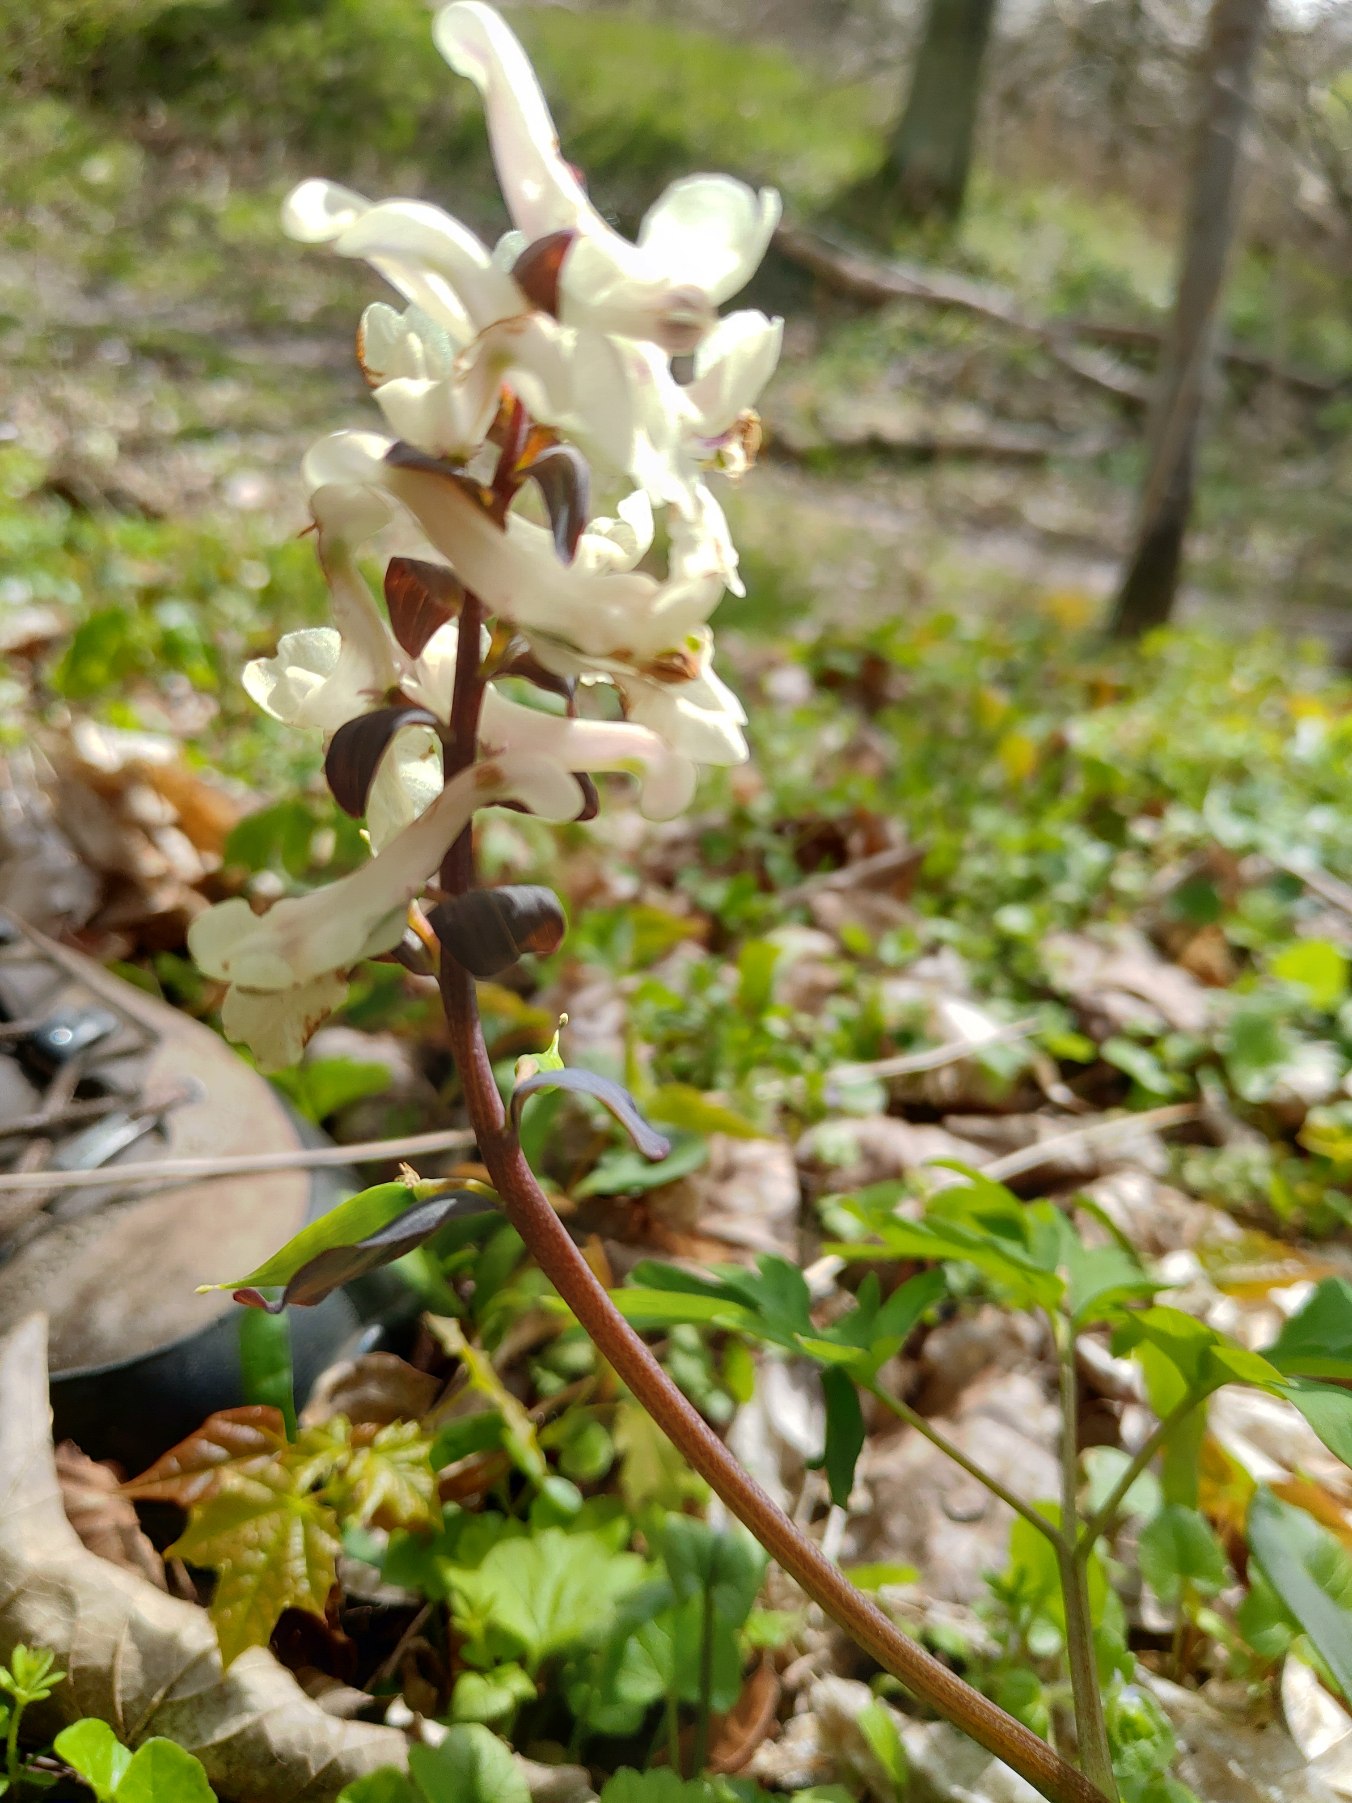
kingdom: Plantae
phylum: Tracheophyta
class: Magnoliopsida
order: Ranunculales
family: Papaveraceae
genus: Corydalis
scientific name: Corydalis cava
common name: Hulrodet lærkespore
